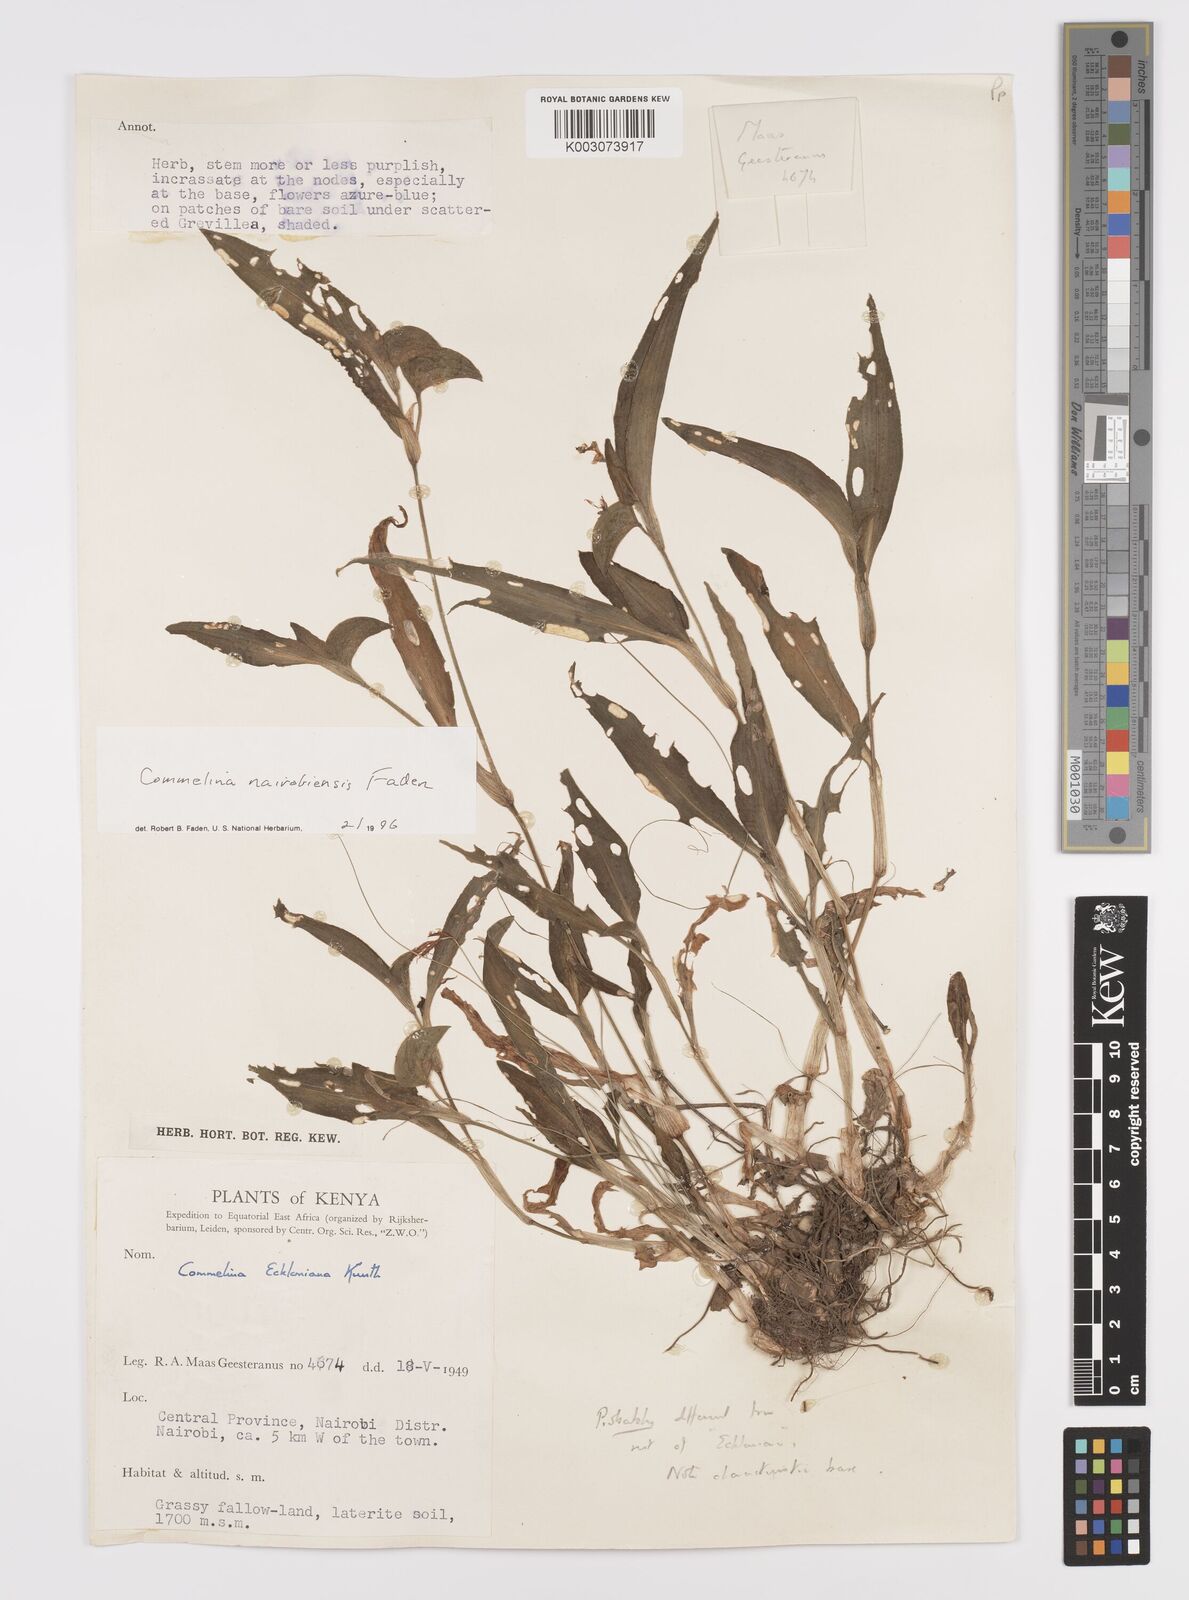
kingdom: Plantae
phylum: Tracheophyta
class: Liliopsida
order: Commelinales
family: Commelinaceae
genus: Commelina
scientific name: Commelina eckloniana
